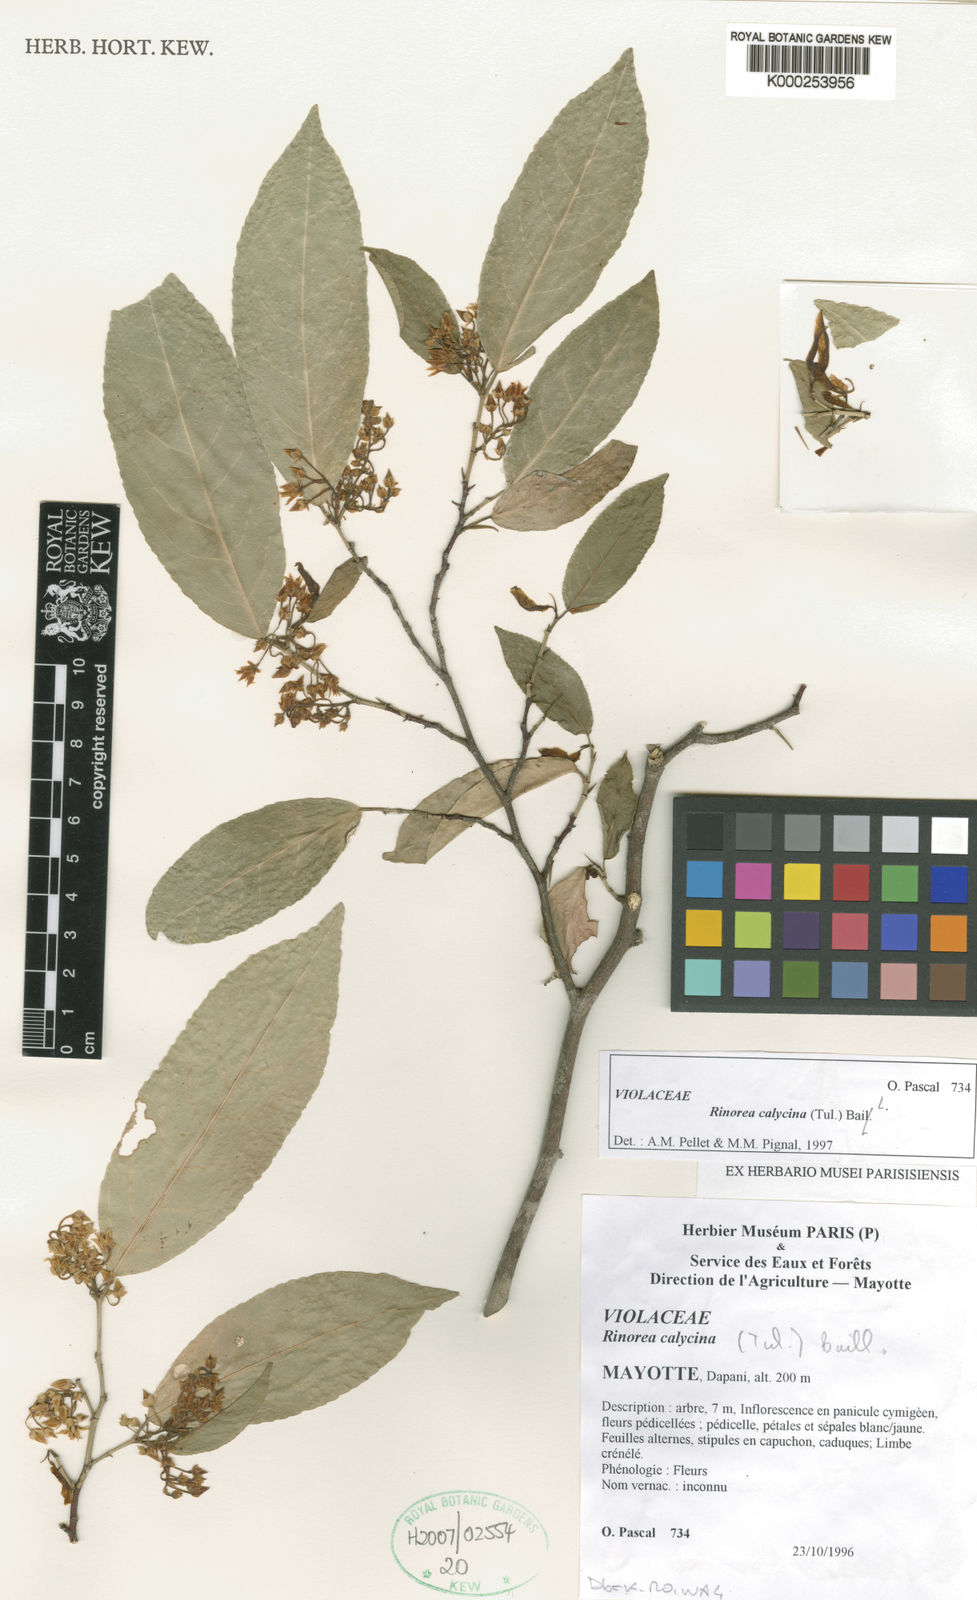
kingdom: Plantae
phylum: Tracheophyta
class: Magnoliopsida
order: Malpighiales
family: Violaceae
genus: Rinorea
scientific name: Rinorea calycina
